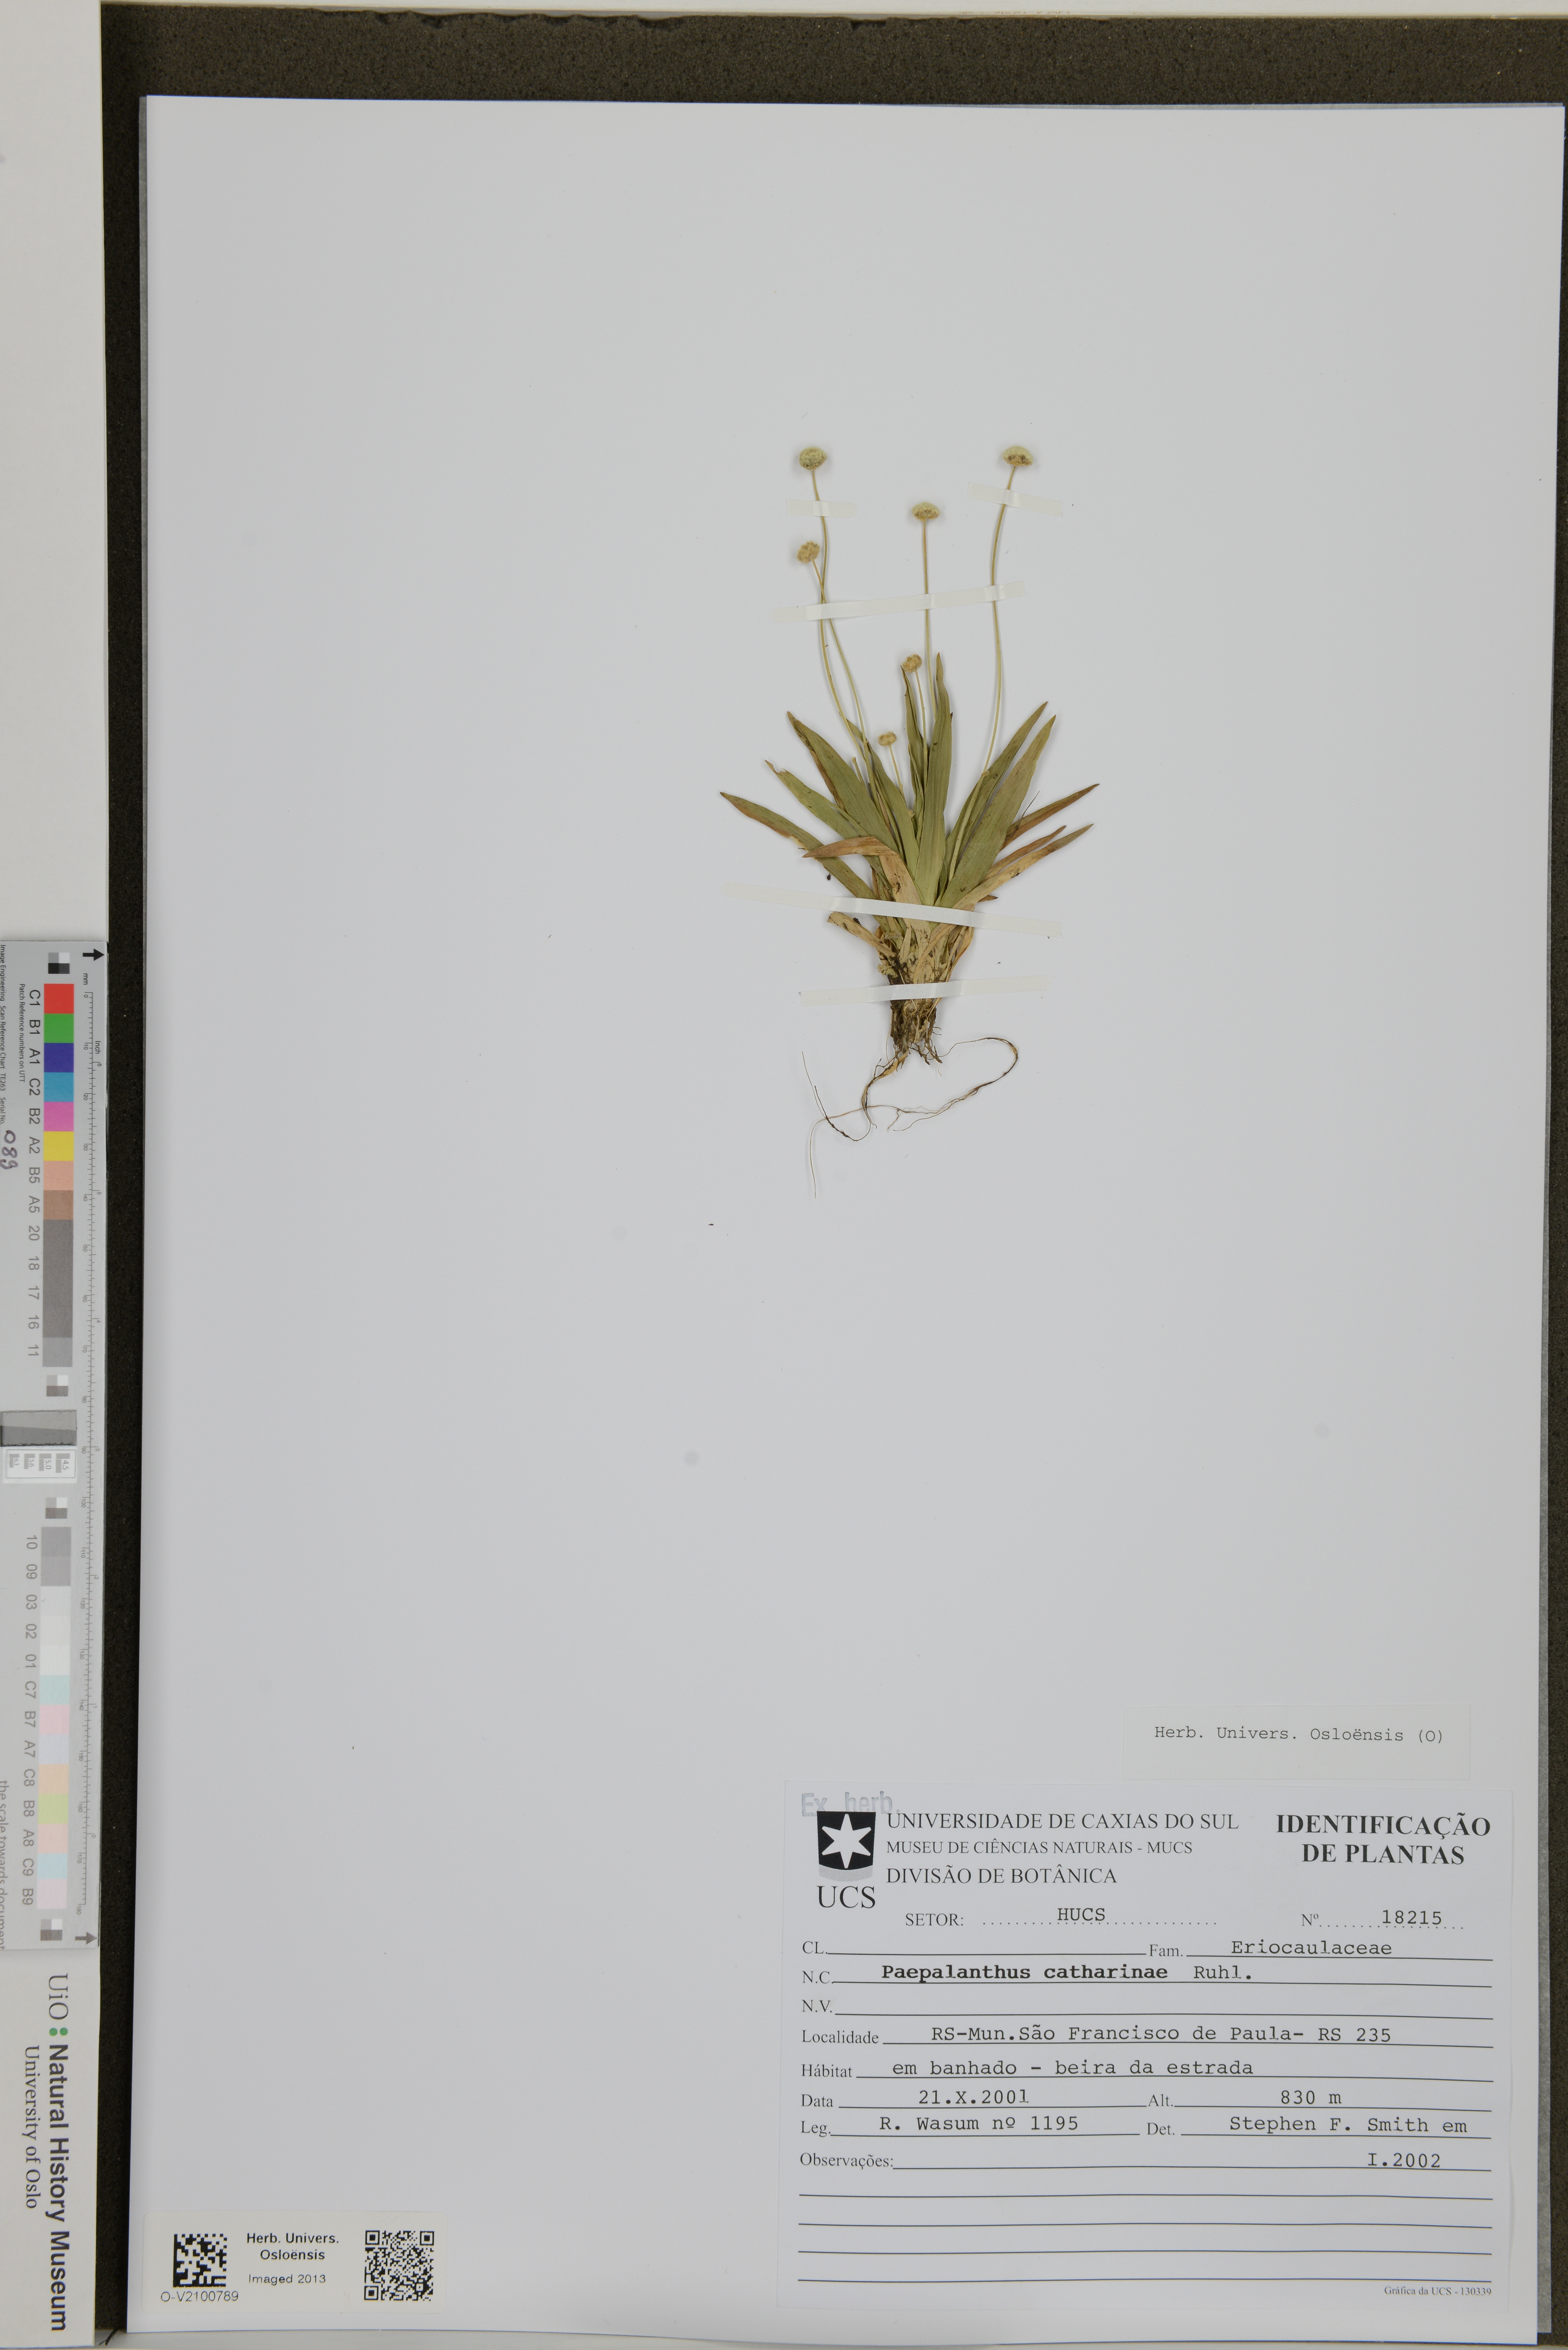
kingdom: Plantae
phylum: Tracheophyta
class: Liliopsida
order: Poales
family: Eriocaulaceae
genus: Paepalanthus
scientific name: Paepalanthus catharinae
